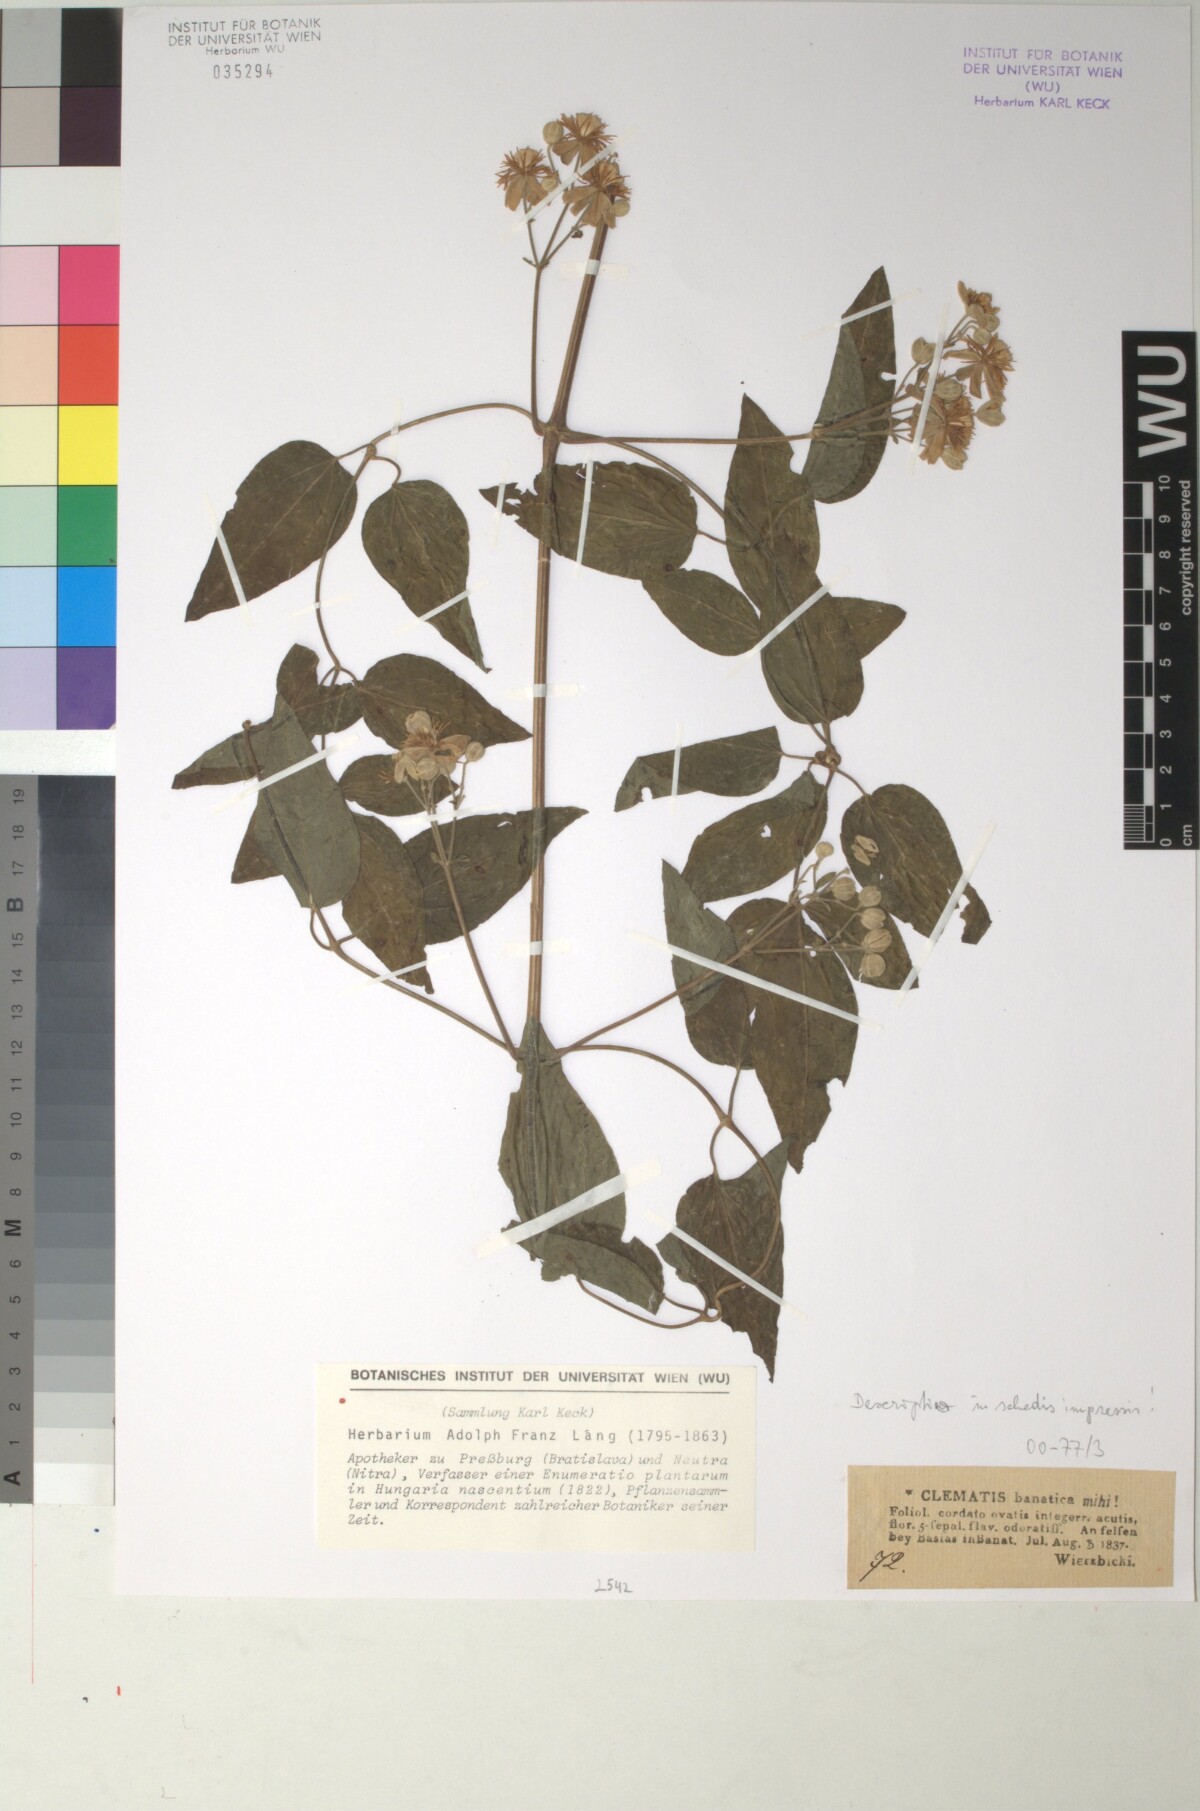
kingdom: Plantae
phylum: Tracheophyta
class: Magnoliopsida
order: Ranunculales
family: Ranunculaceae
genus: Clematis
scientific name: Clematis vitalba
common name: Evergreen clematis
